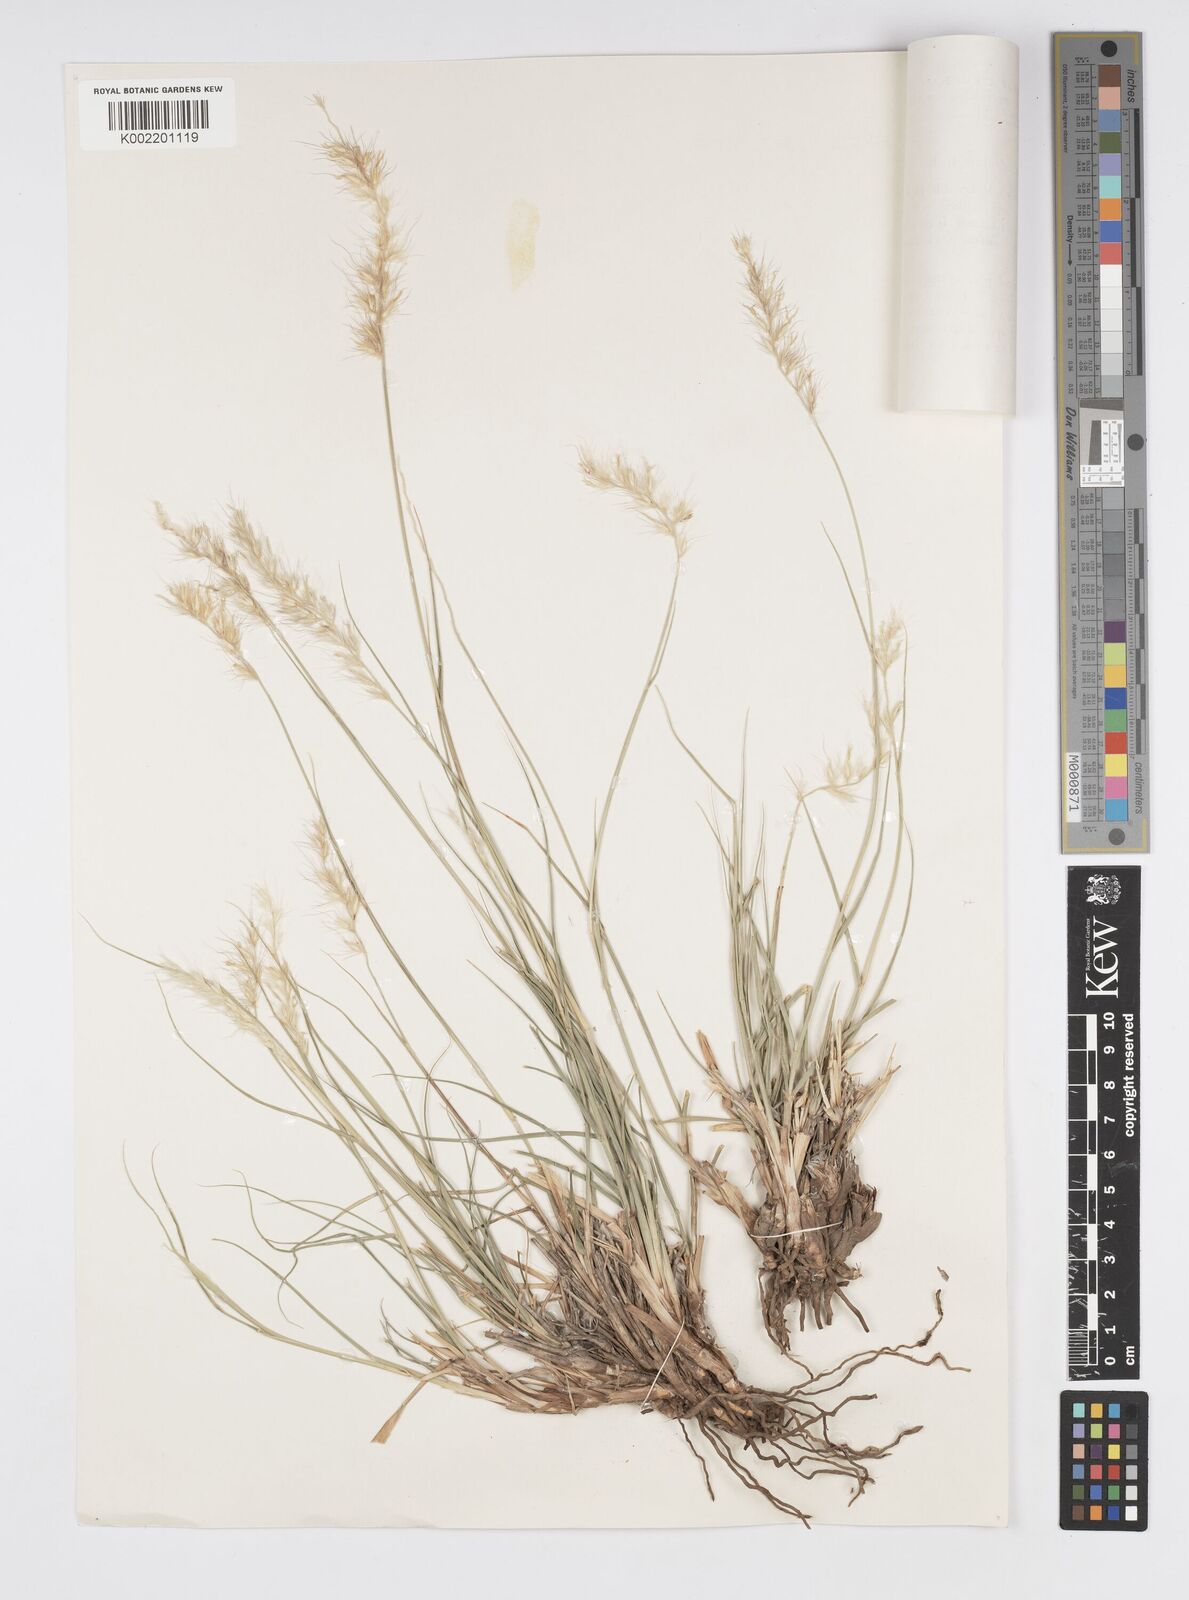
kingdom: Plantae
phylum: Tracheophyta
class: Liliopsida
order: Poales
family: Poaceae
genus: Cenchrus
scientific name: Cenchrus orientalis
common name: Oriental fountain grass
